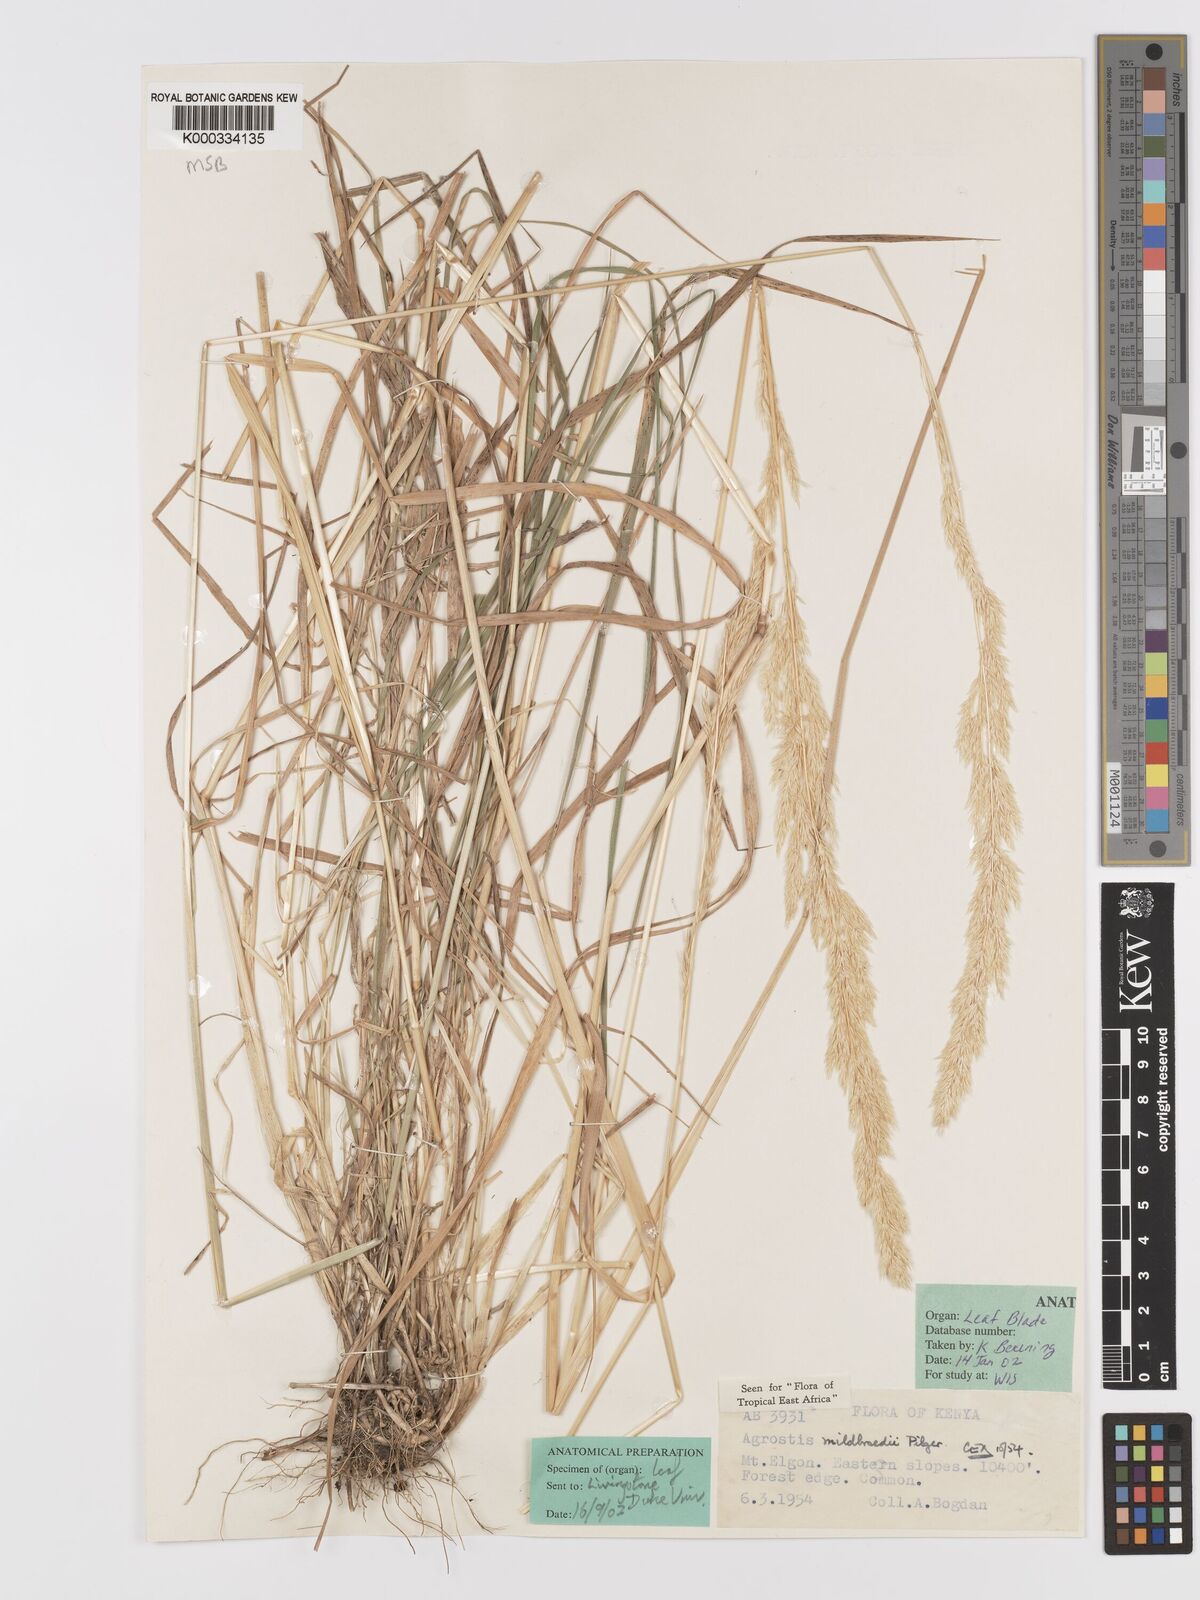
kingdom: Plantae
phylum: Tracheophyta
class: Liliopsida
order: Poales
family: Poaceae
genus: Agrostis
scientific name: Agrostis quinqueseta
